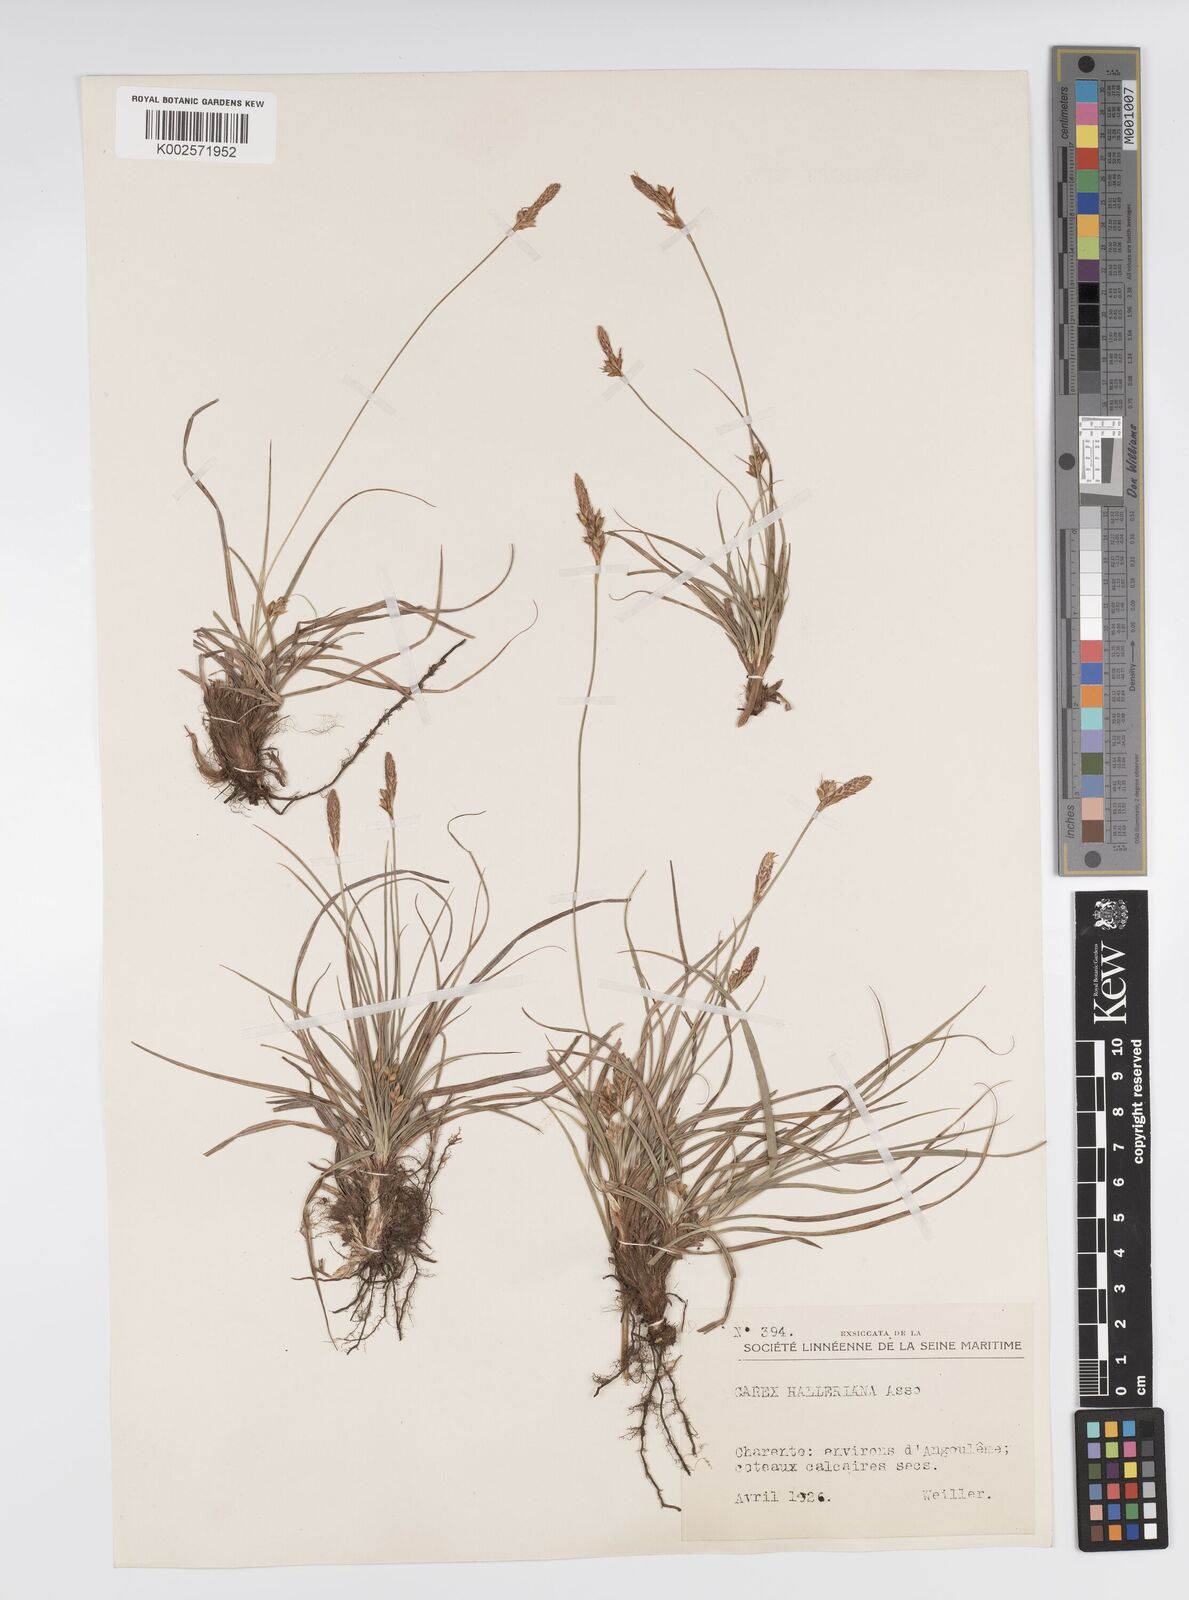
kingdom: Plantae
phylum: Tracheophyta
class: Liliopsida
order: Poales
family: Cyperaceae
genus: Carex
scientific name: Carex halleriana
